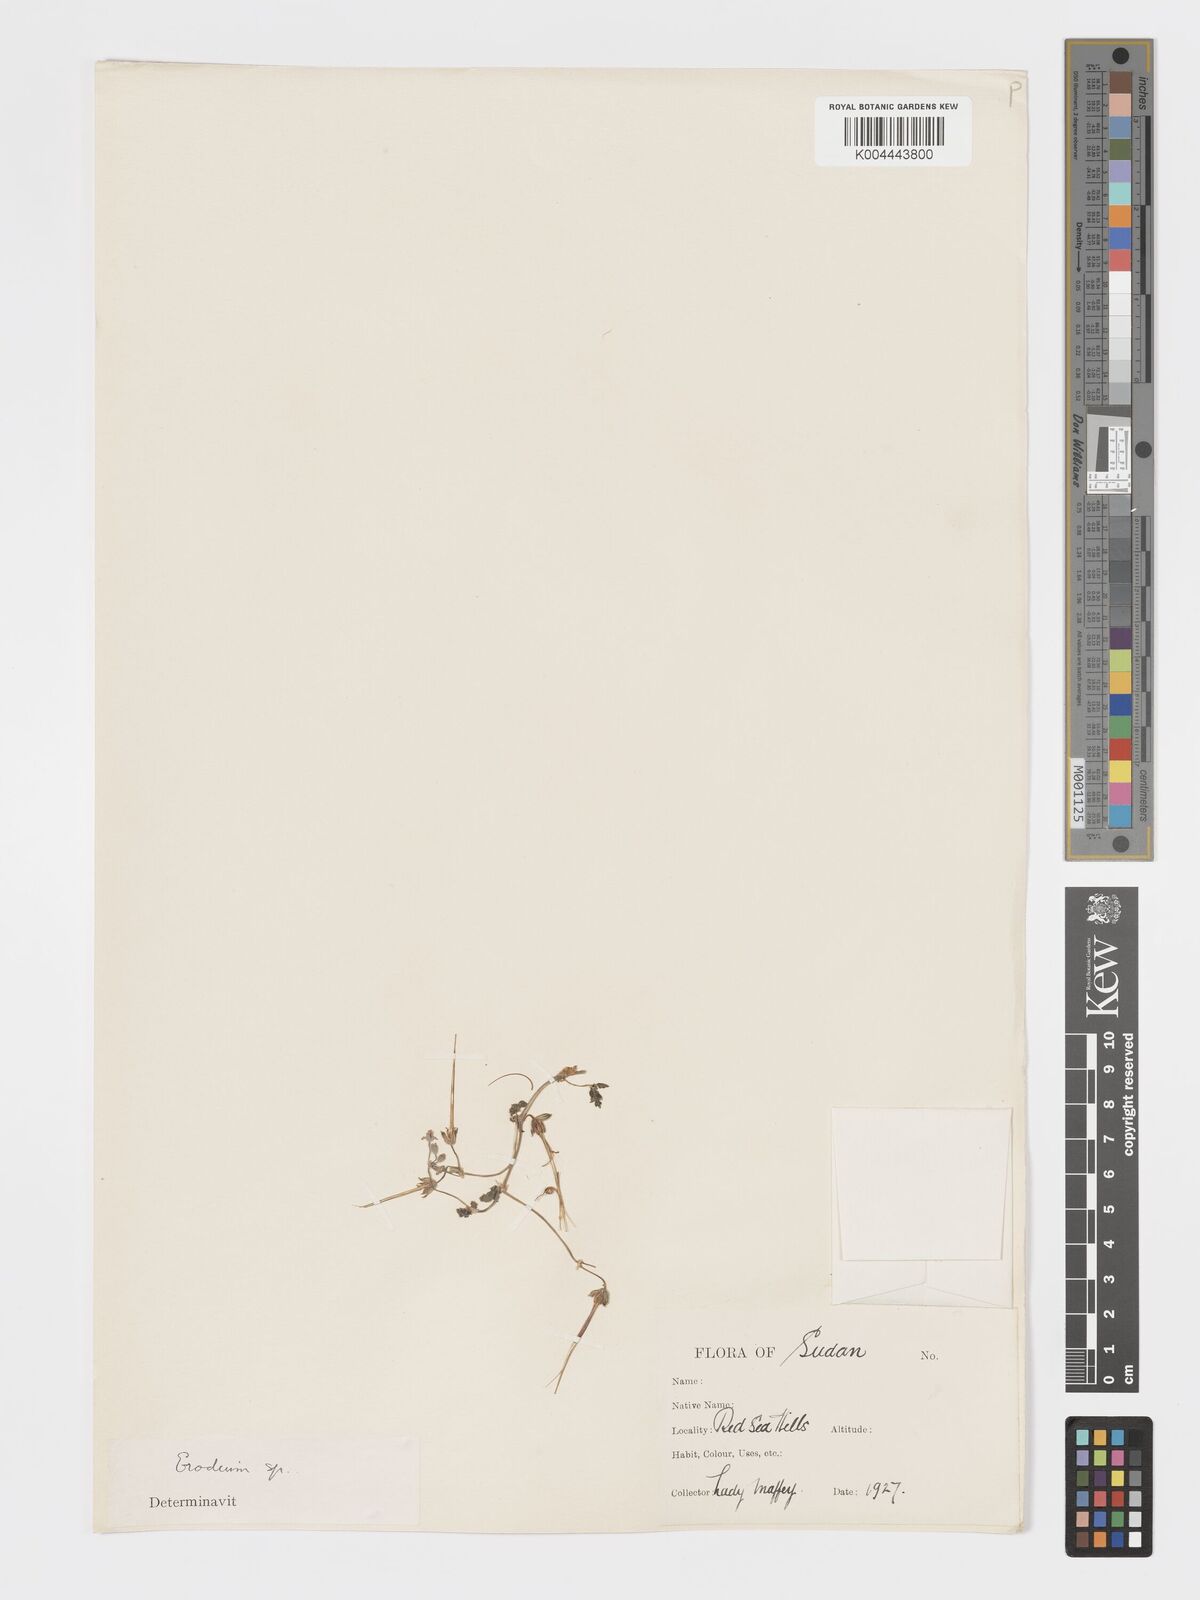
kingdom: Plantae
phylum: Tracheophyta
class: Magnoliopsida
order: Geraniales
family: Geraniaceae
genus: Erodium
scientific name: Erodium
